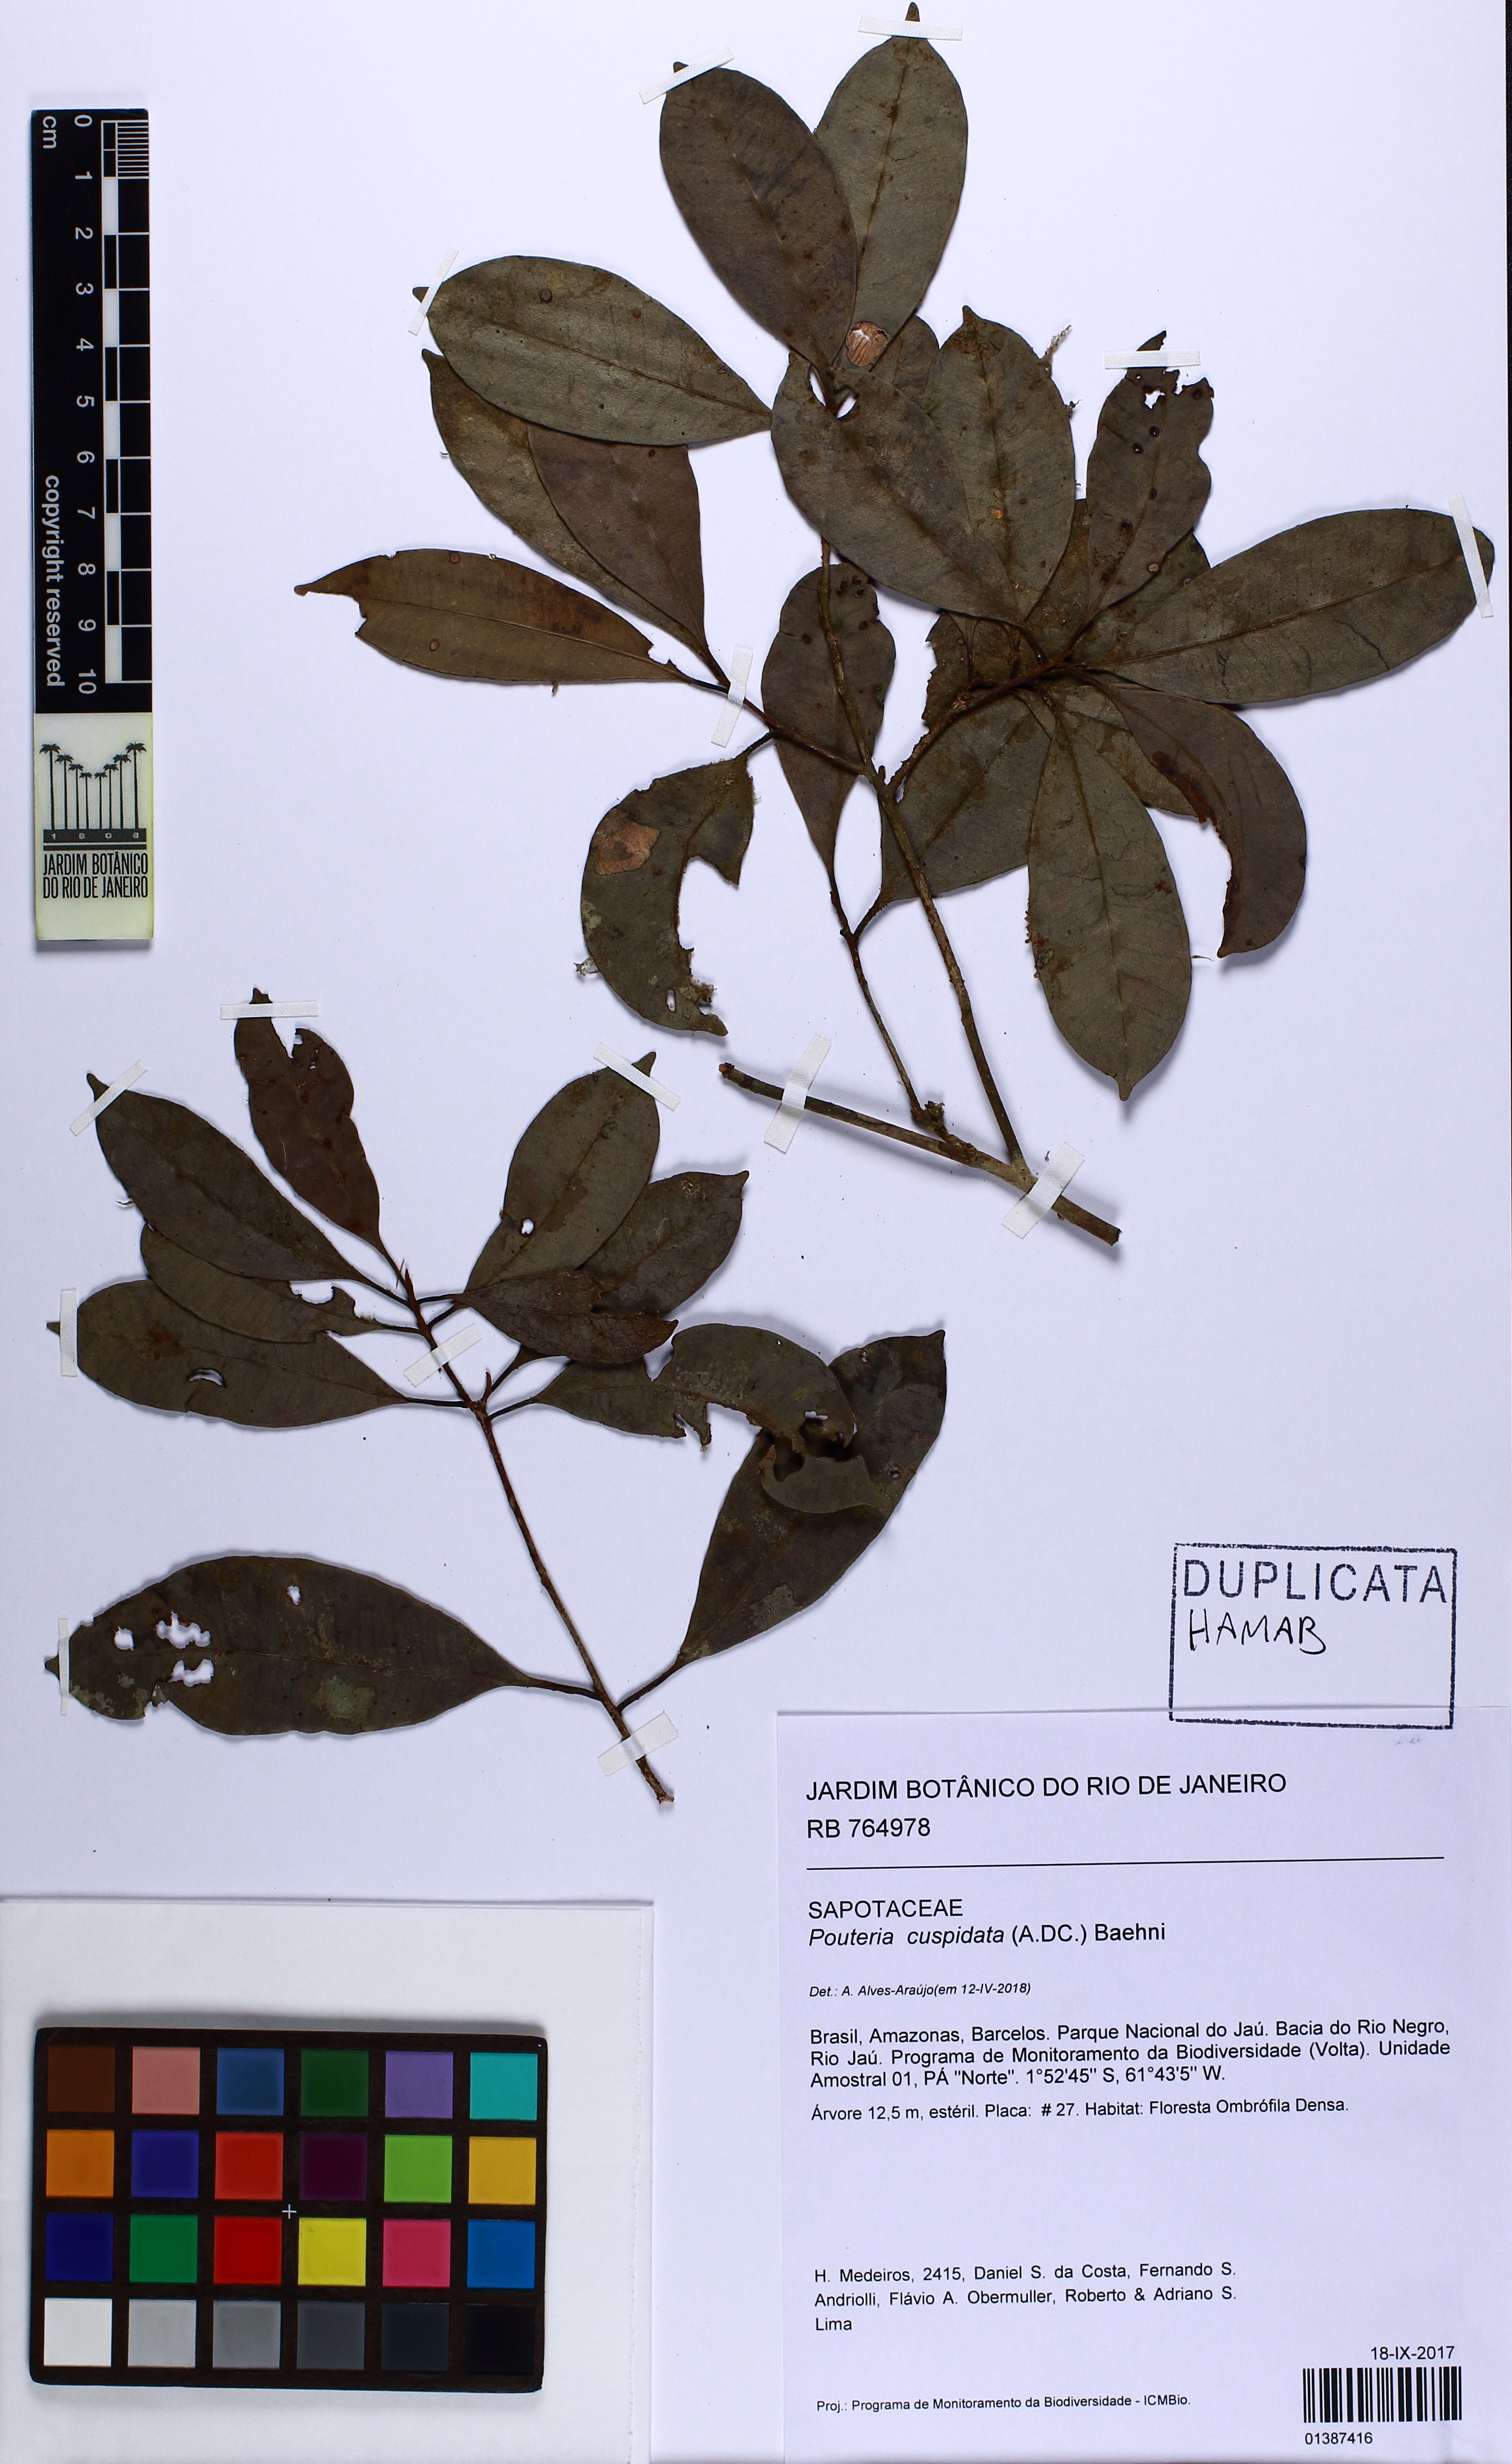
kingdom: Plantae
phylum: Tracheophyta
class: Magnoliopsida
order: Ericales
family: Sapotaceae
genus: Pouteria
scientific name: Pouteria cuspidata
